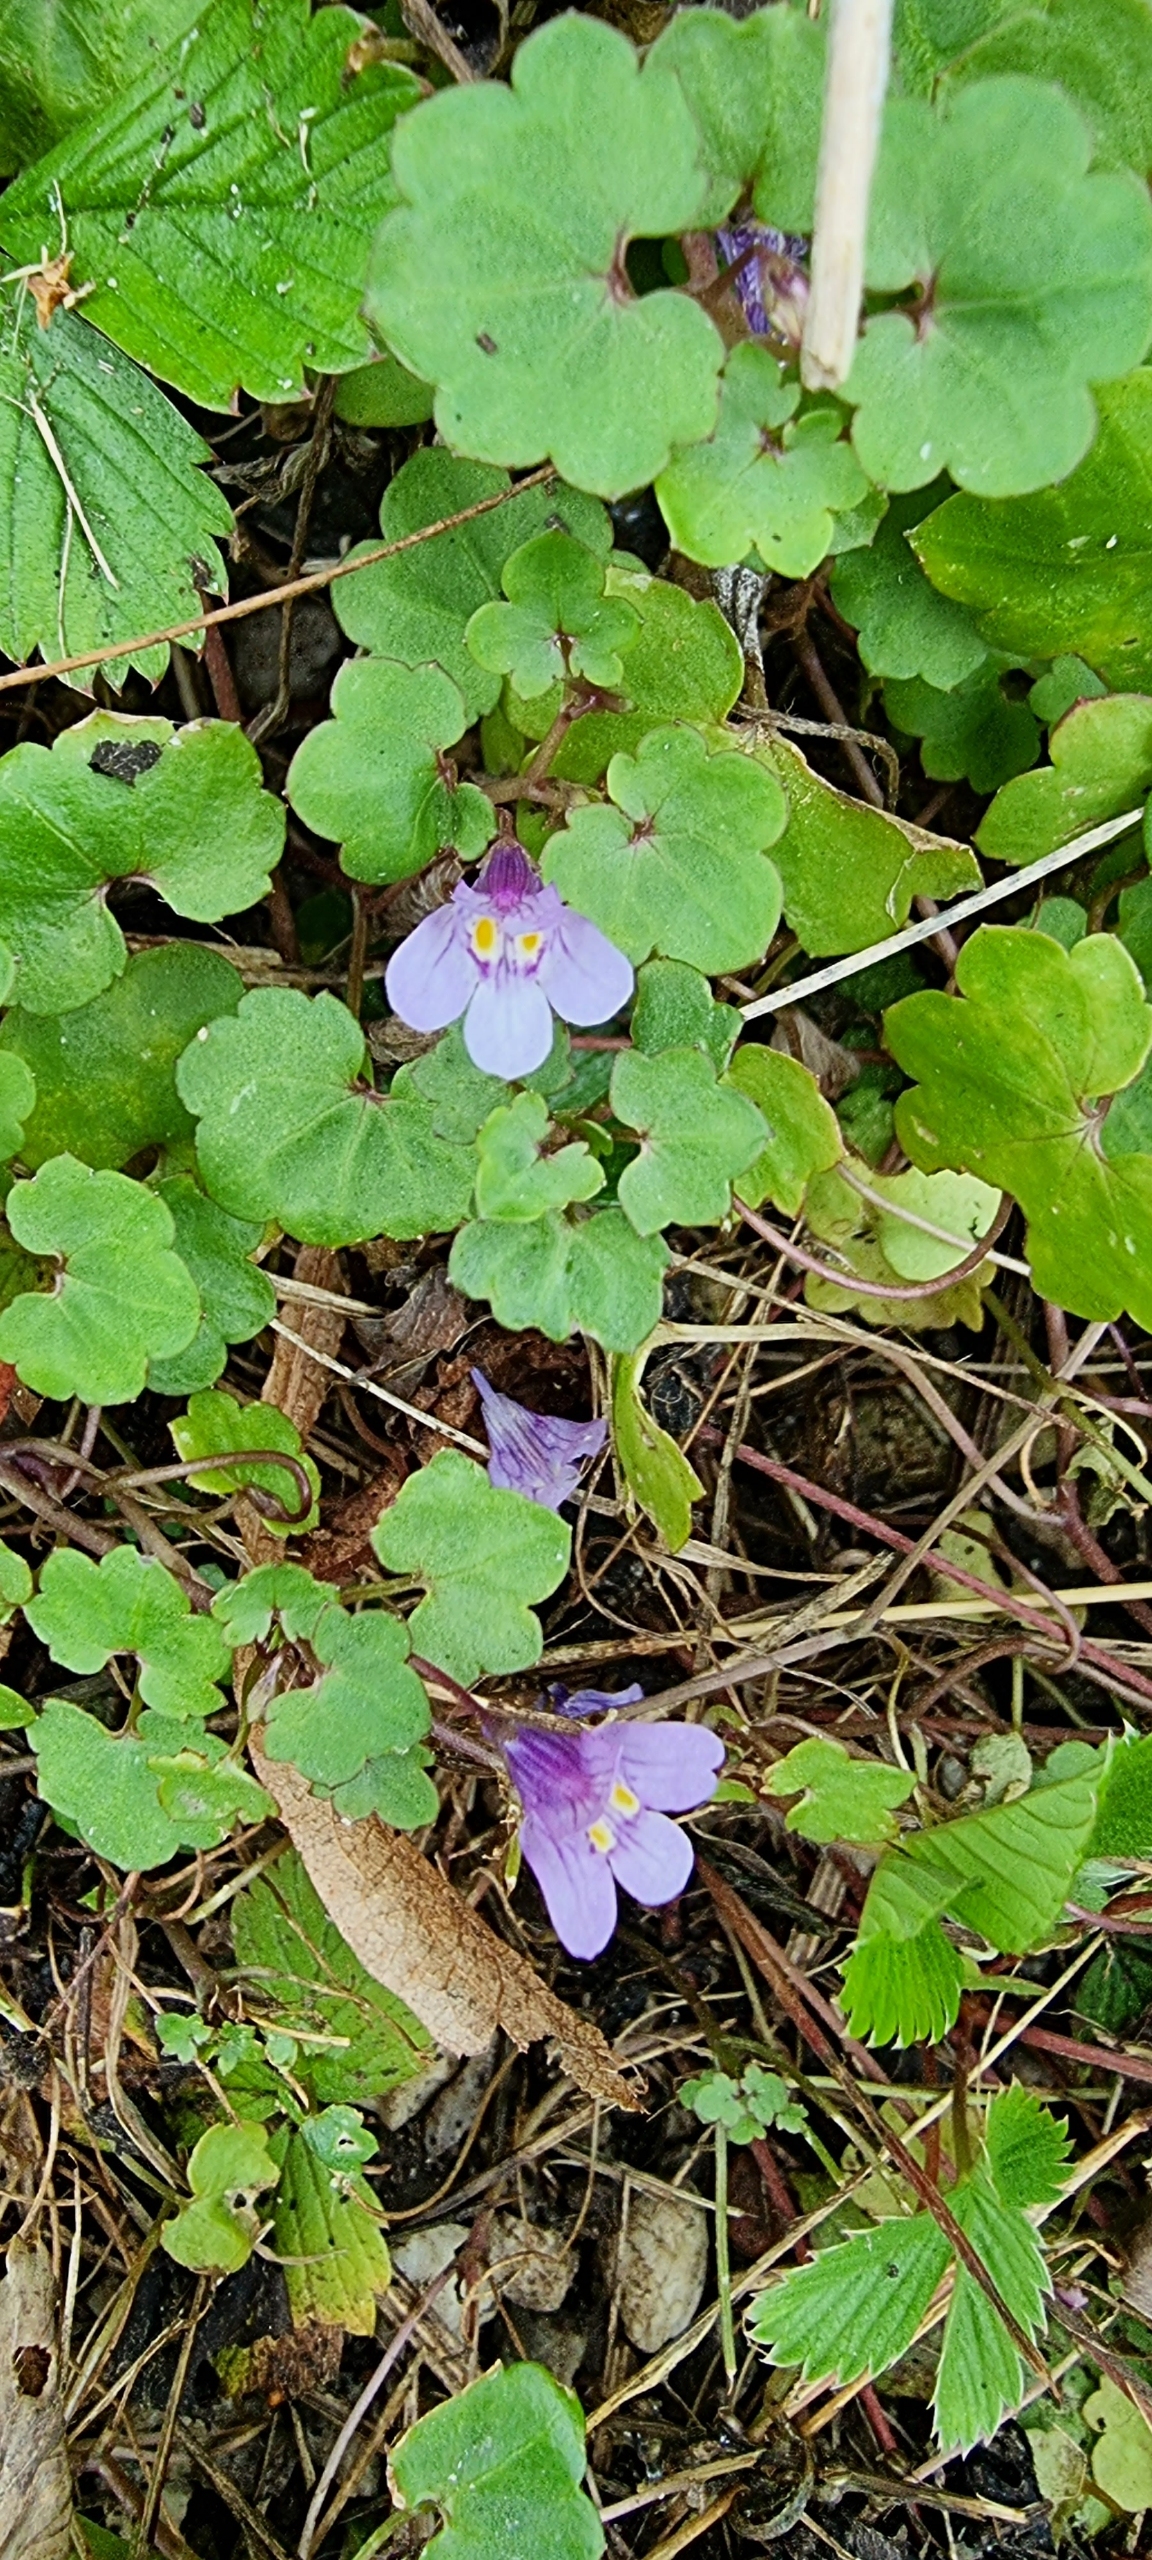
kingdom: Plantae
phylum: Tracheophyta
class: Magnoliopsida
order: Lamiales
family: Plantaginaceae
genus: Cymbalaria
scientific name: Cymbalaria muralis
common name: Vedbend-torskemund
